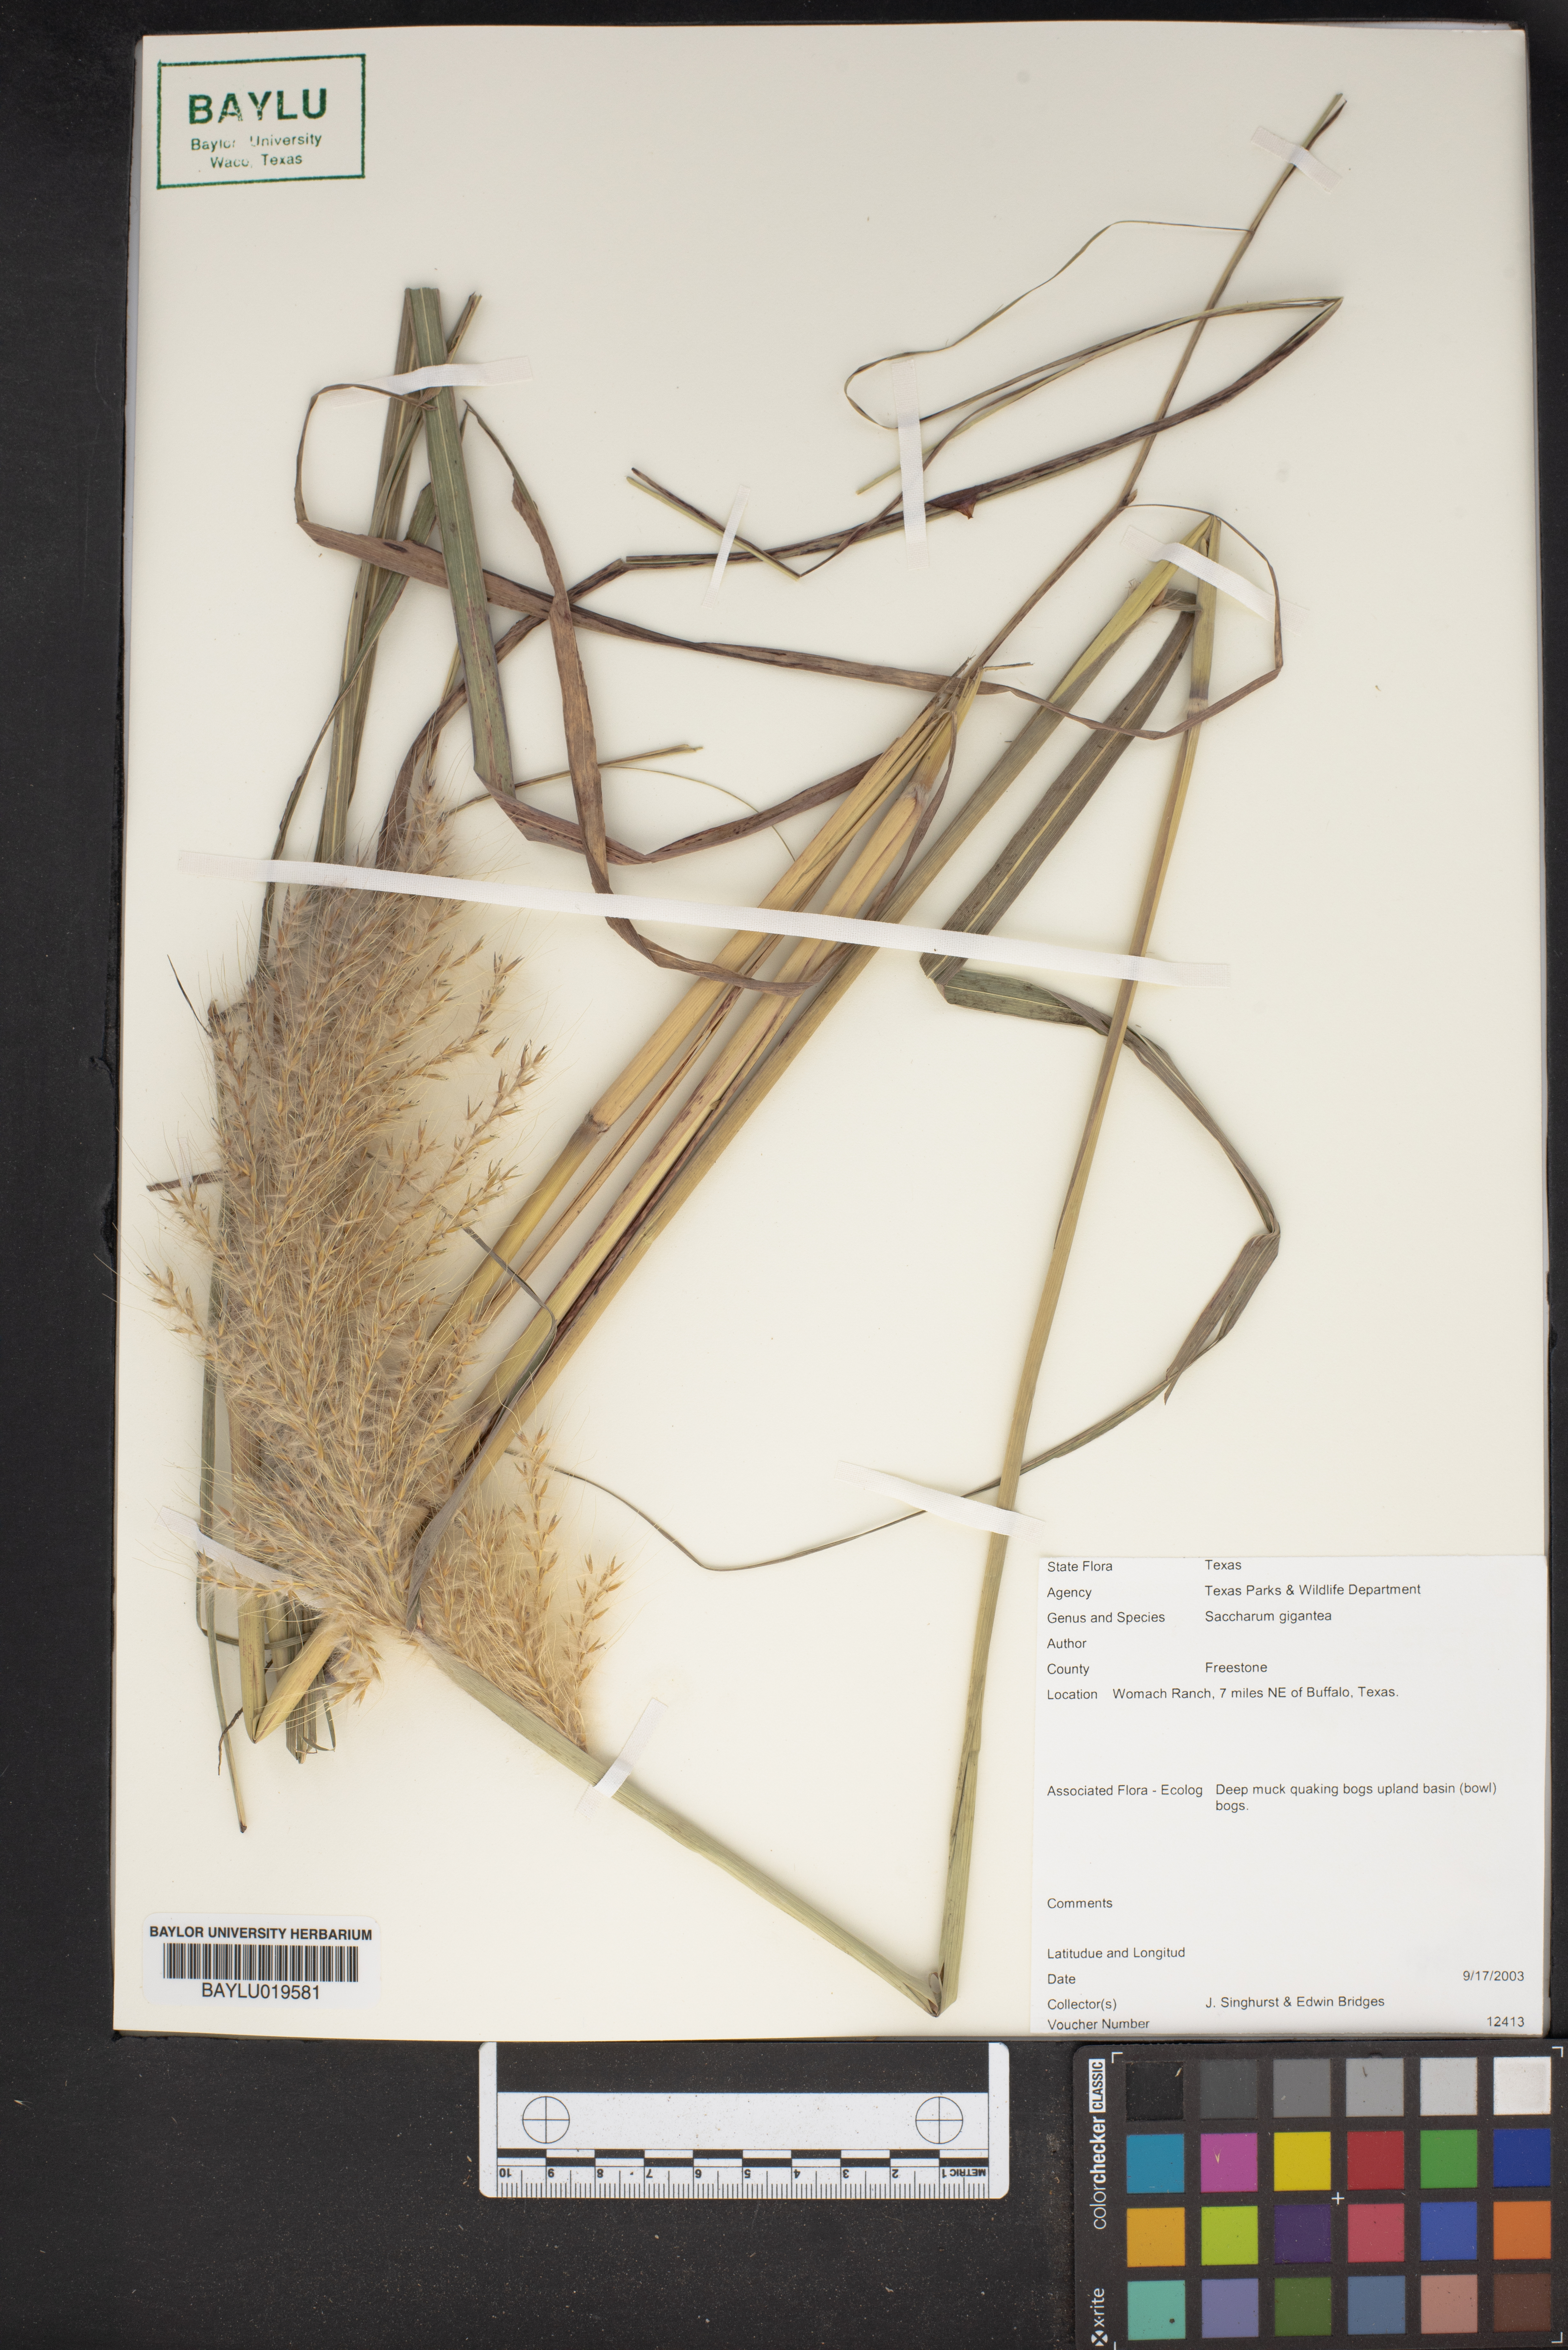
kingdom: Plantae
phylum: Tracheophyta
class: Liliopsida
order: Poales
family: Poaceae
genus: Erianthus
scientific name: Erianthus giganteus
